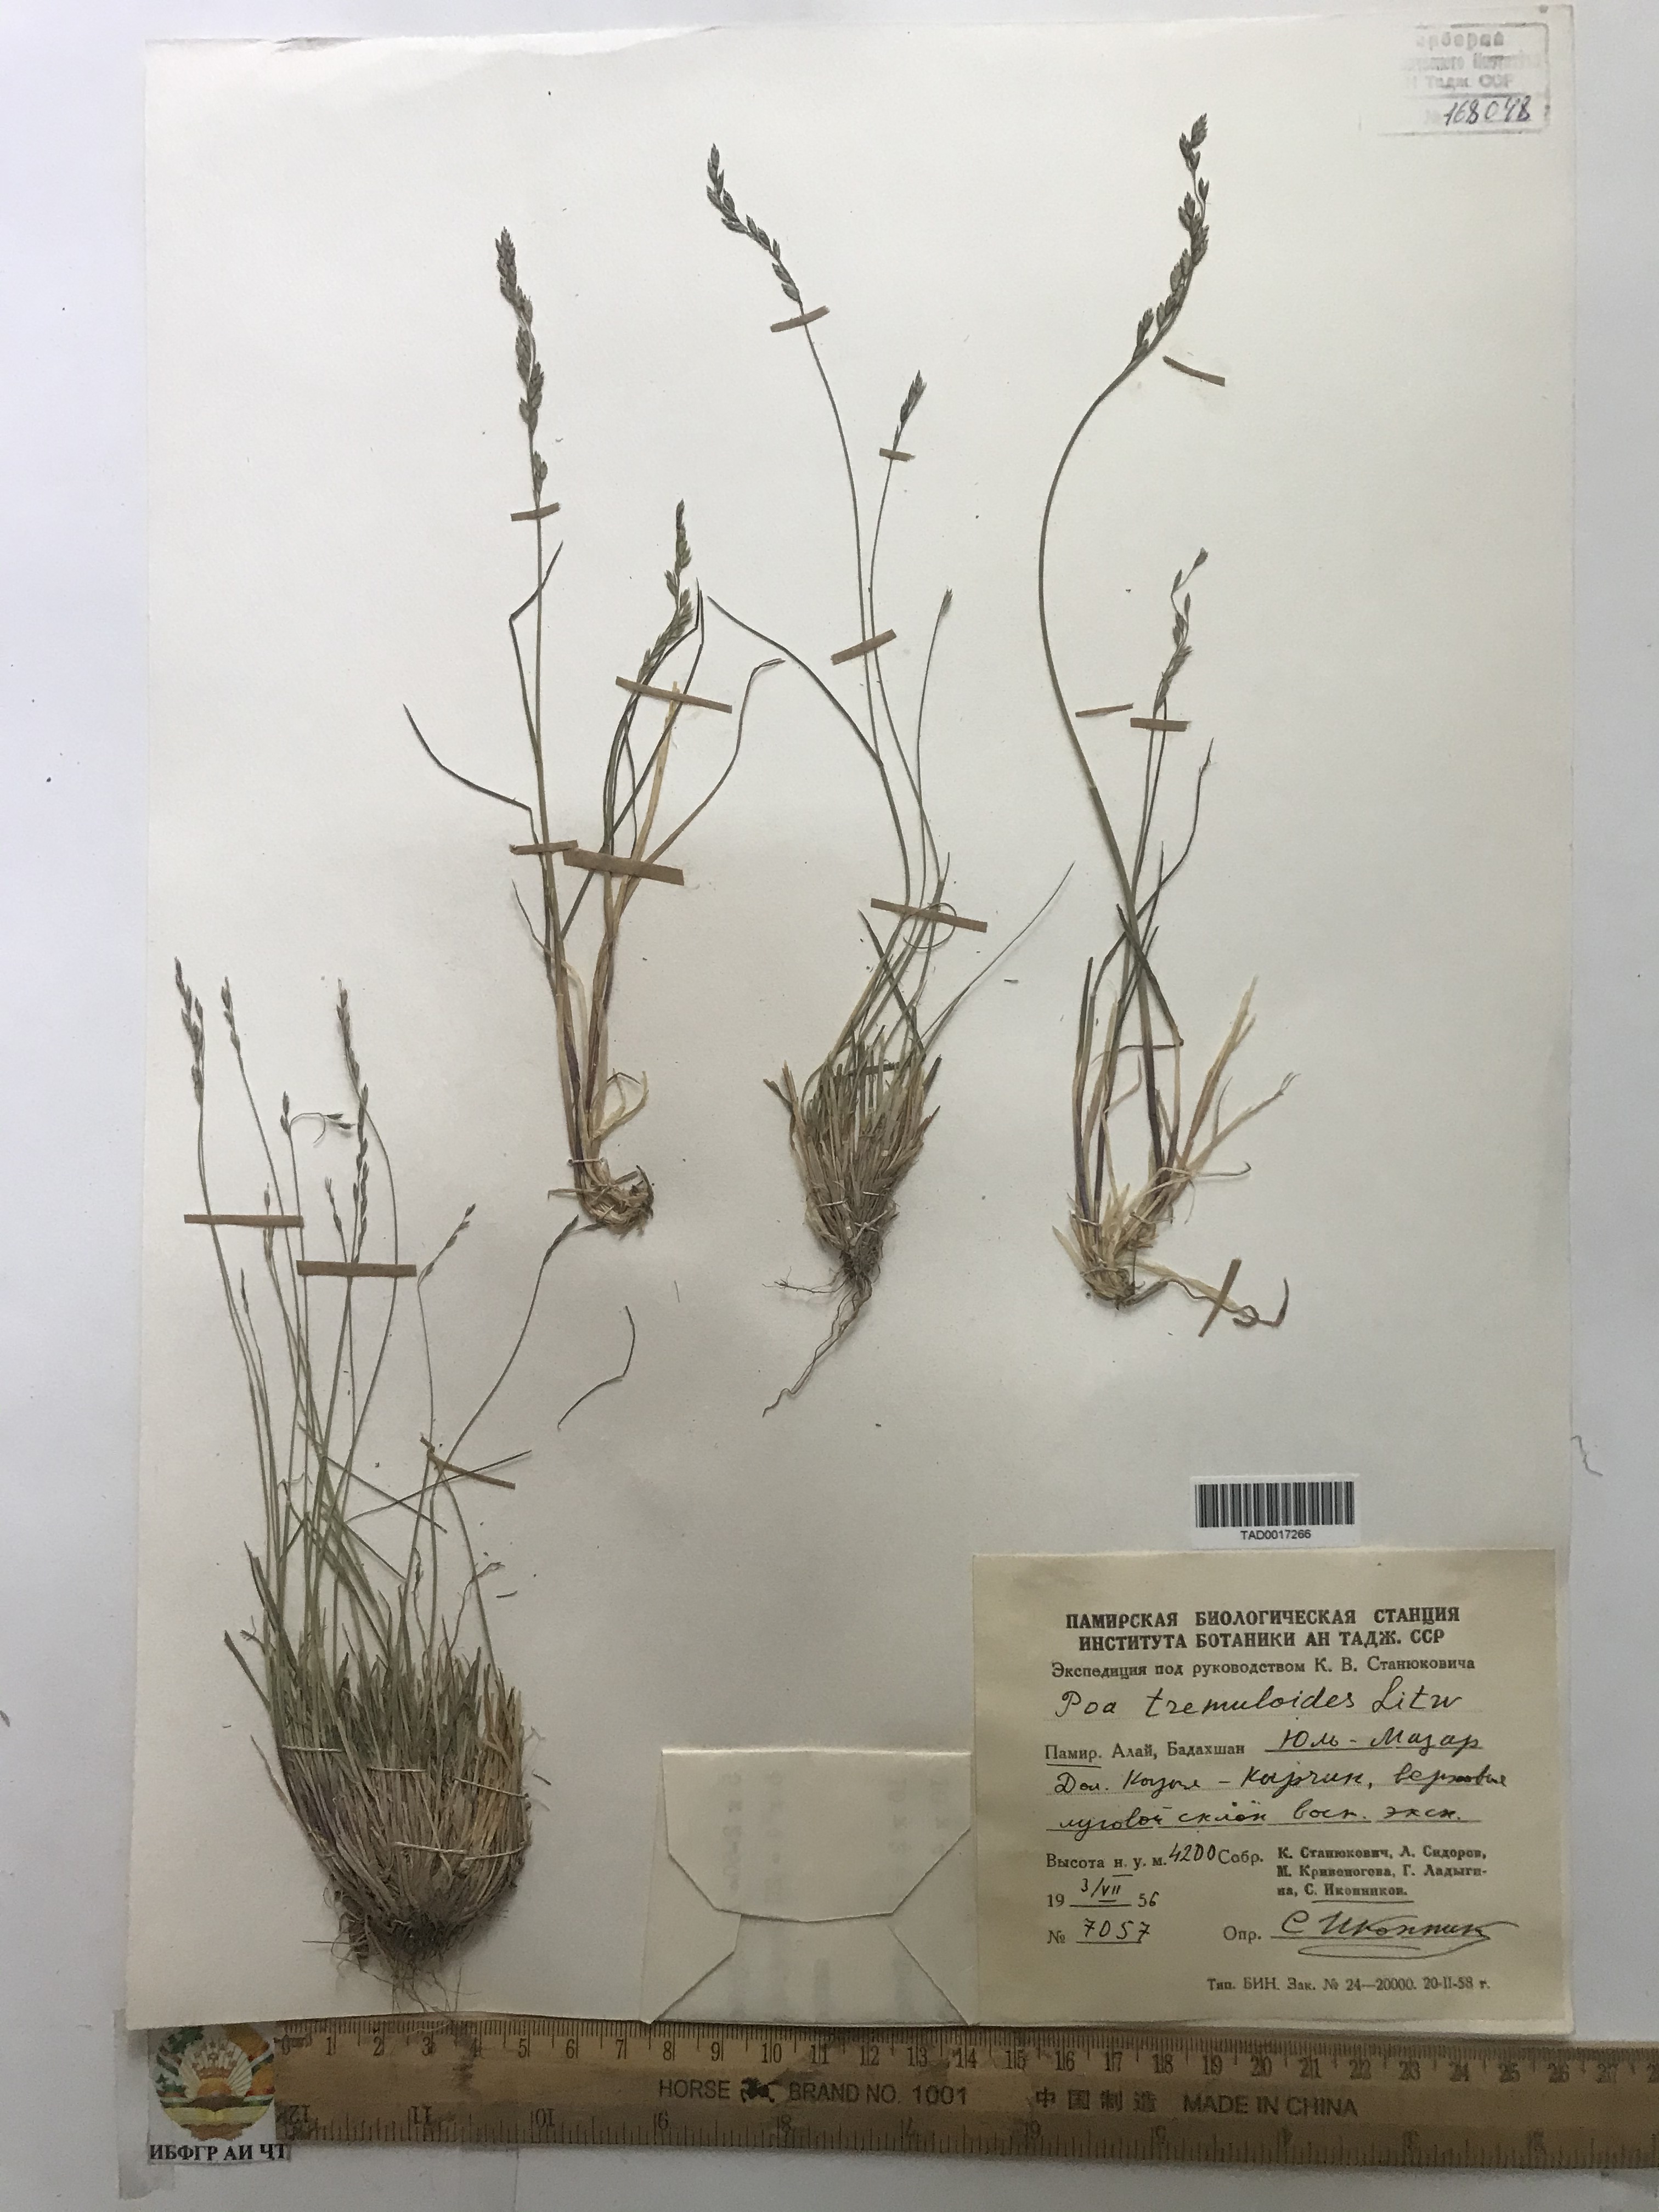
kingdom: Plantae
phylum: Tracheophyta
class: Liliopsida
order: Poales
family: Poaceae
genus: Poa
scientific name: Poa glauca
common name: Glaucous bluegrass
